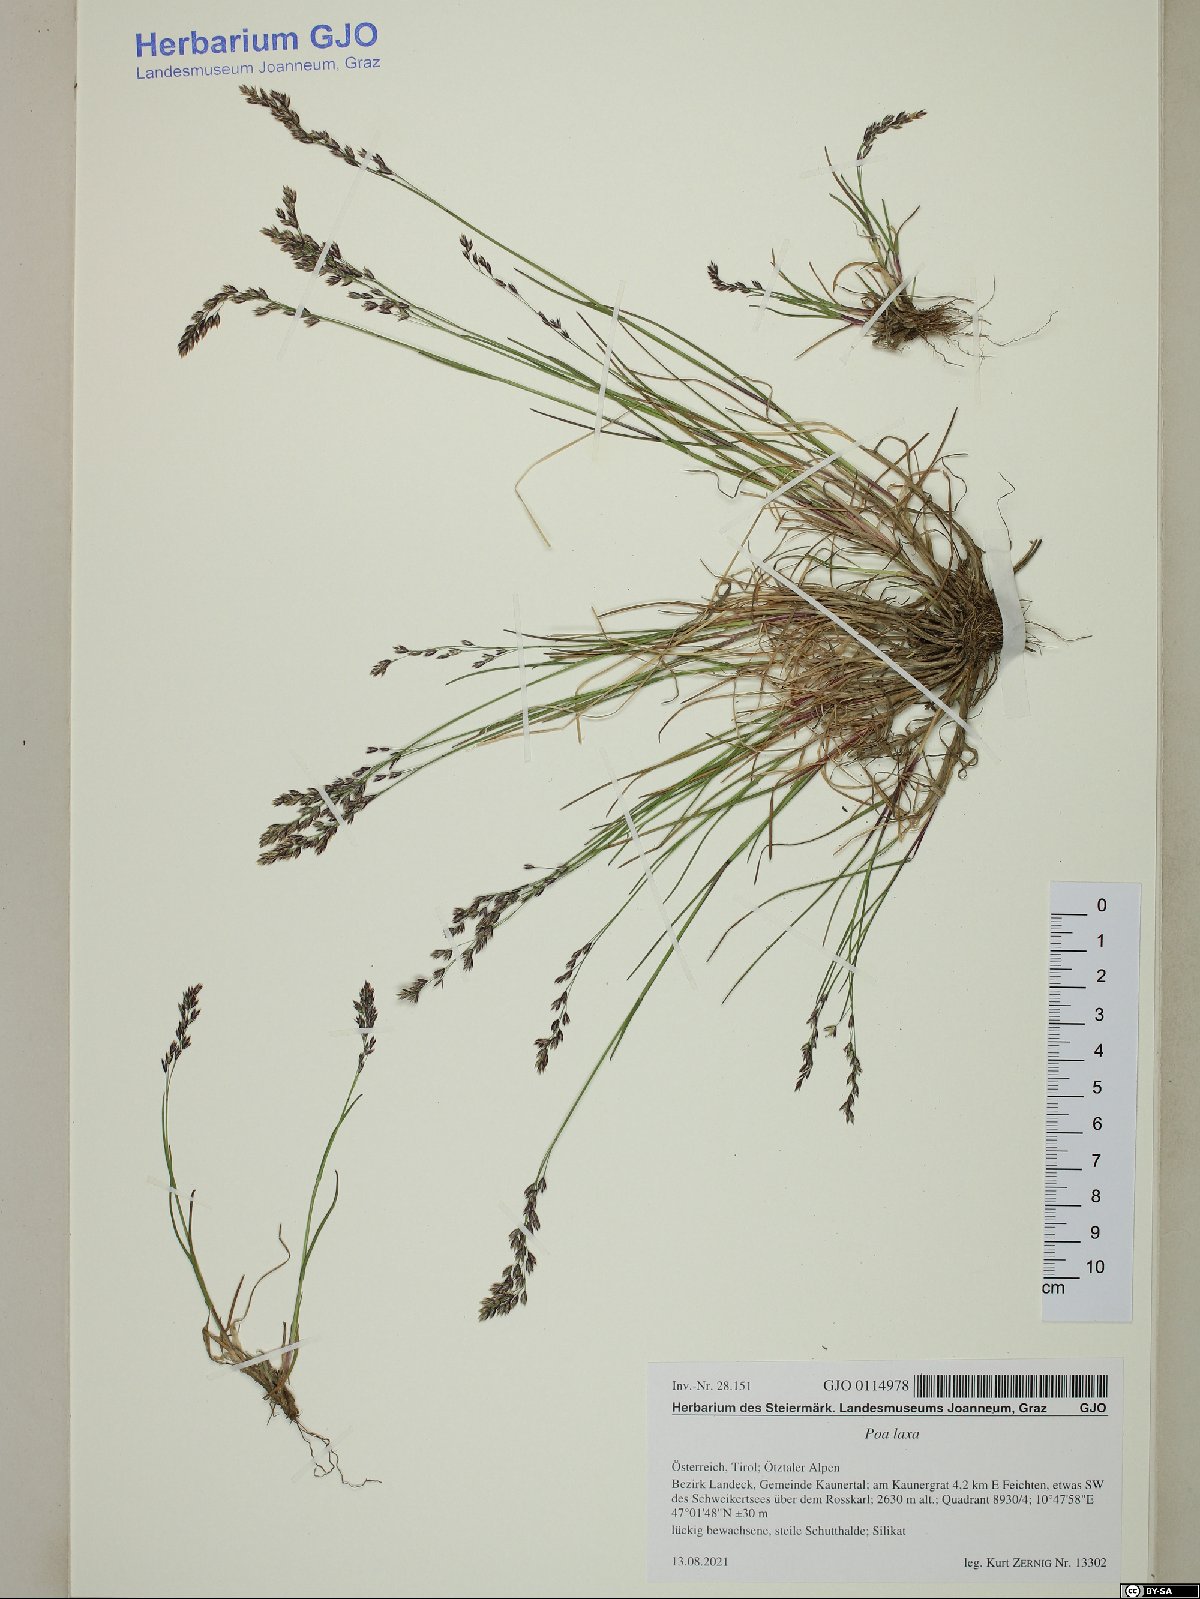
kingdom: Plantae
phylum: Tracheophyta
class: Liliopsida
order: Poales
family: Poaceae
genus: Poa
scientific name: Poa laxa
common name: Lax bluegrass
